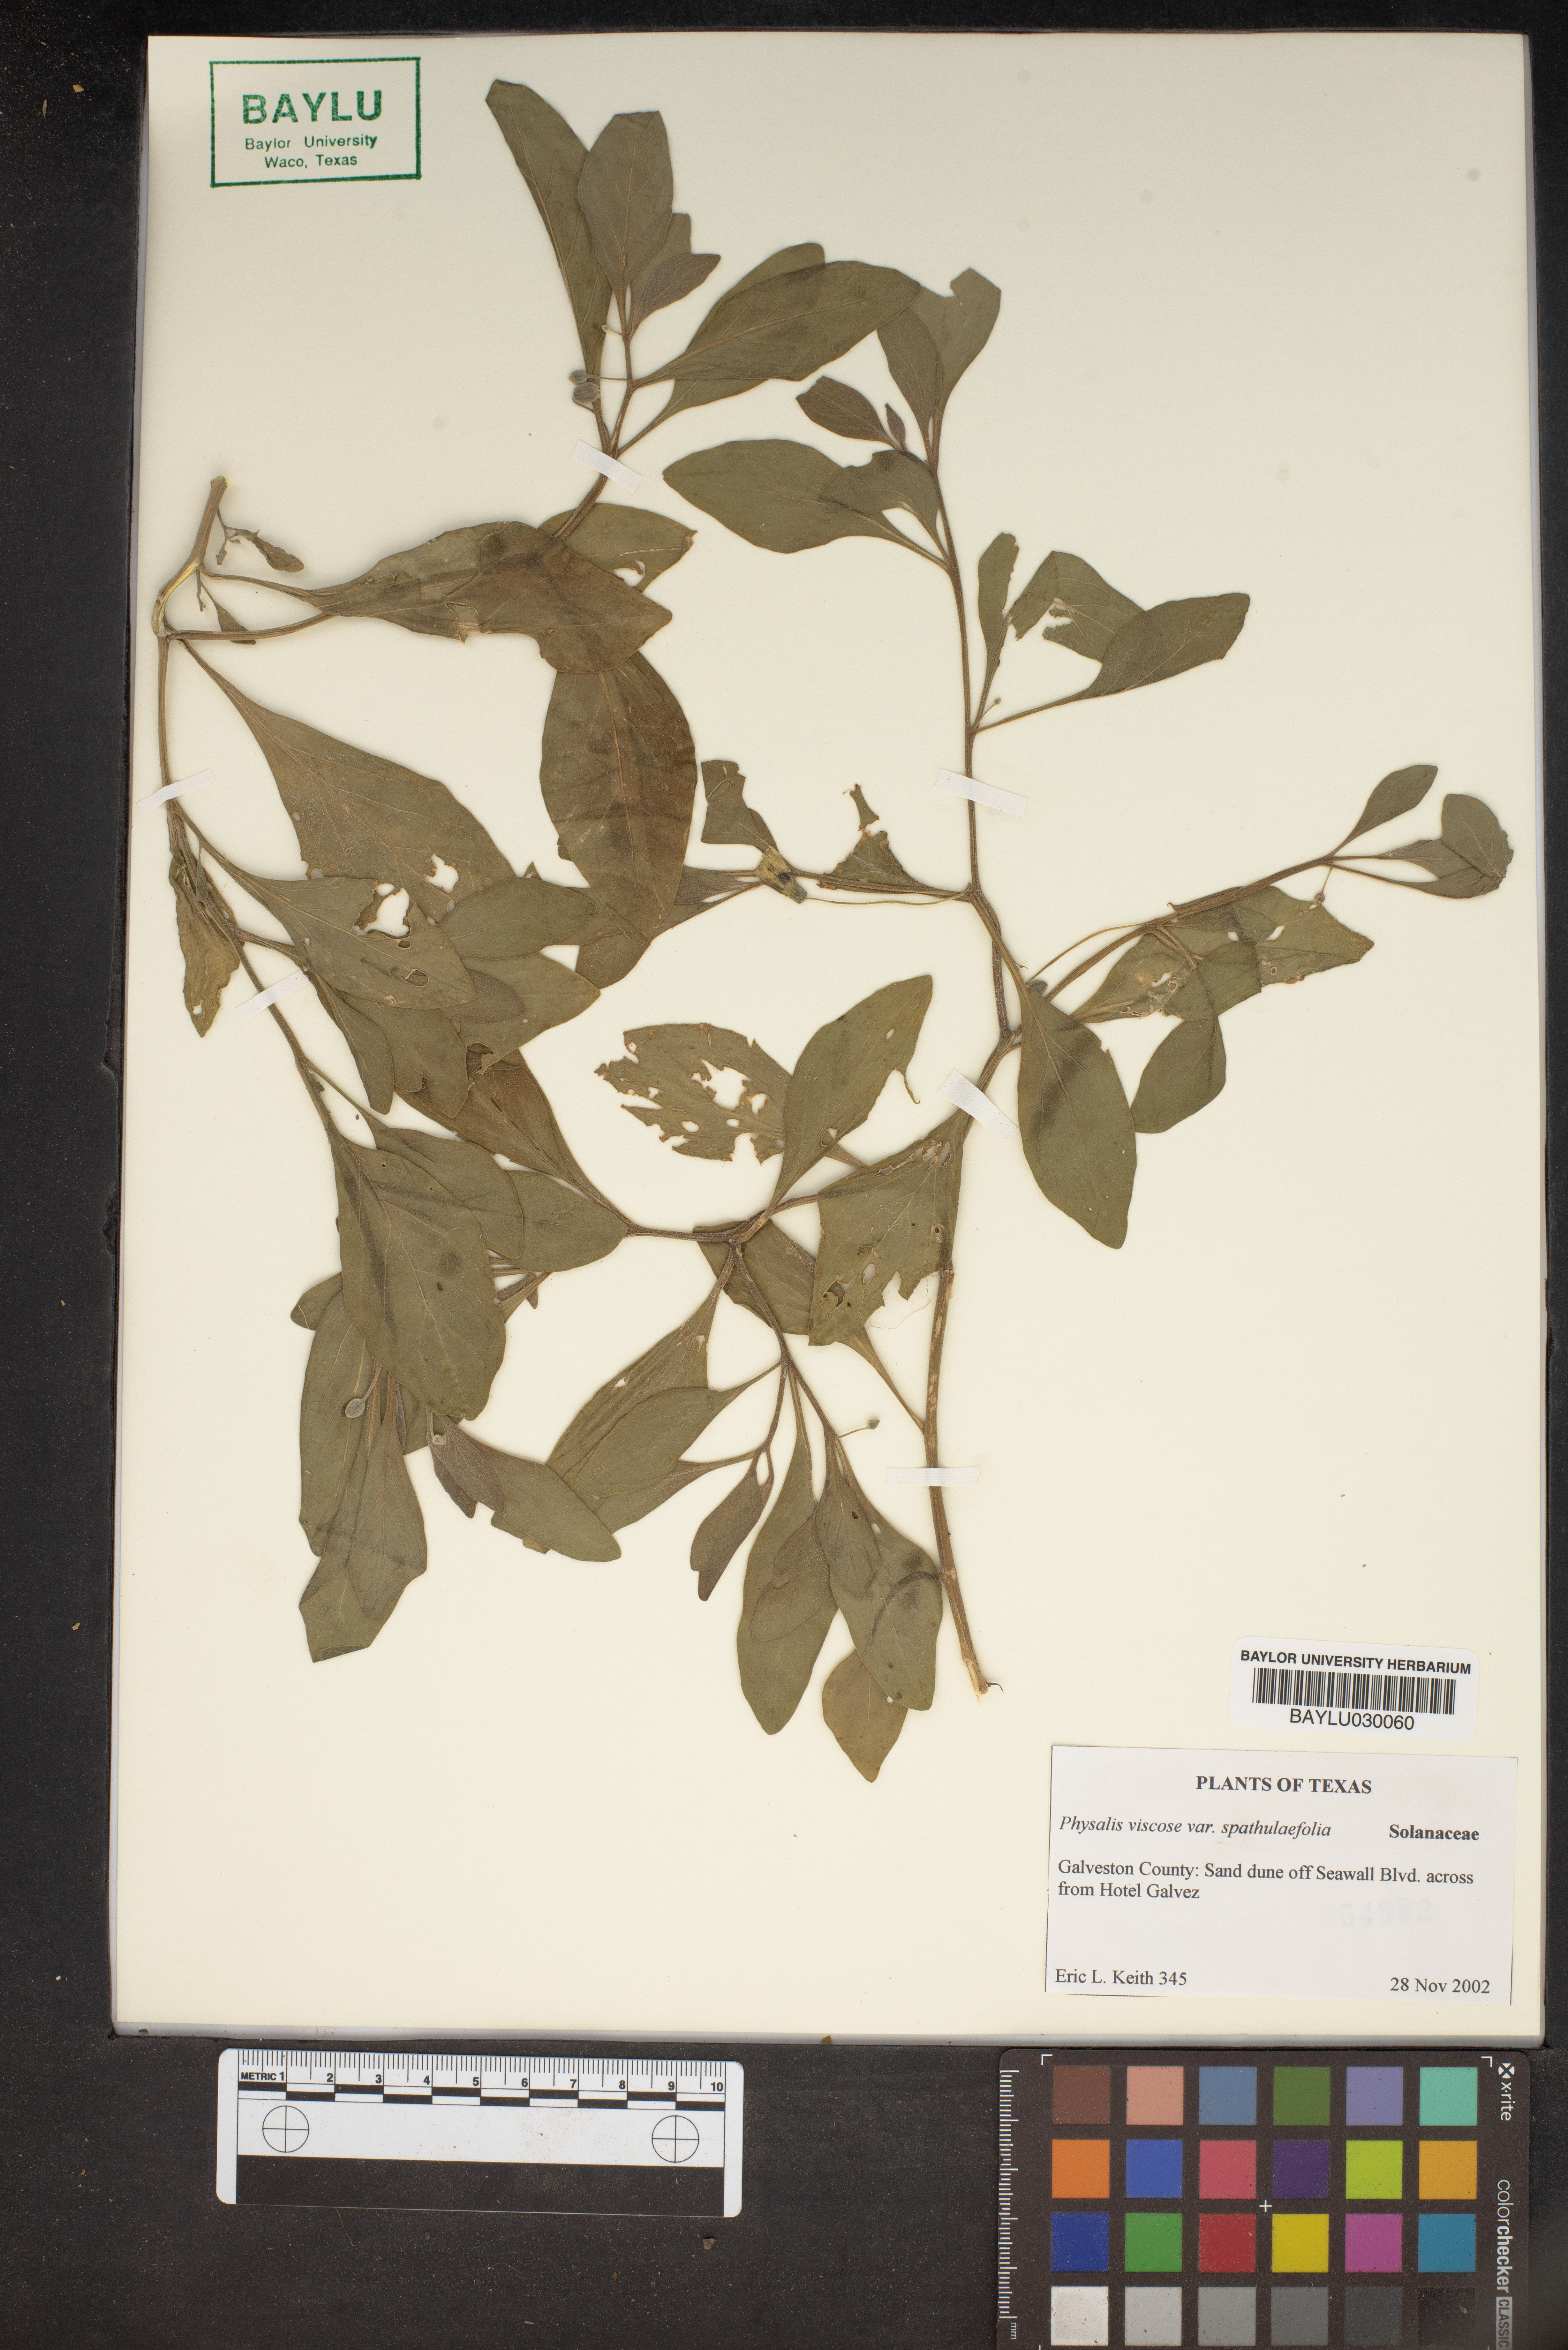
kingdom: Plantae
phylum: Tracheophyta
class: Magnoliopsida
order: Solanales
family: Solanaceae
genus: Physalis
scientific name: Physalis cinerascens
